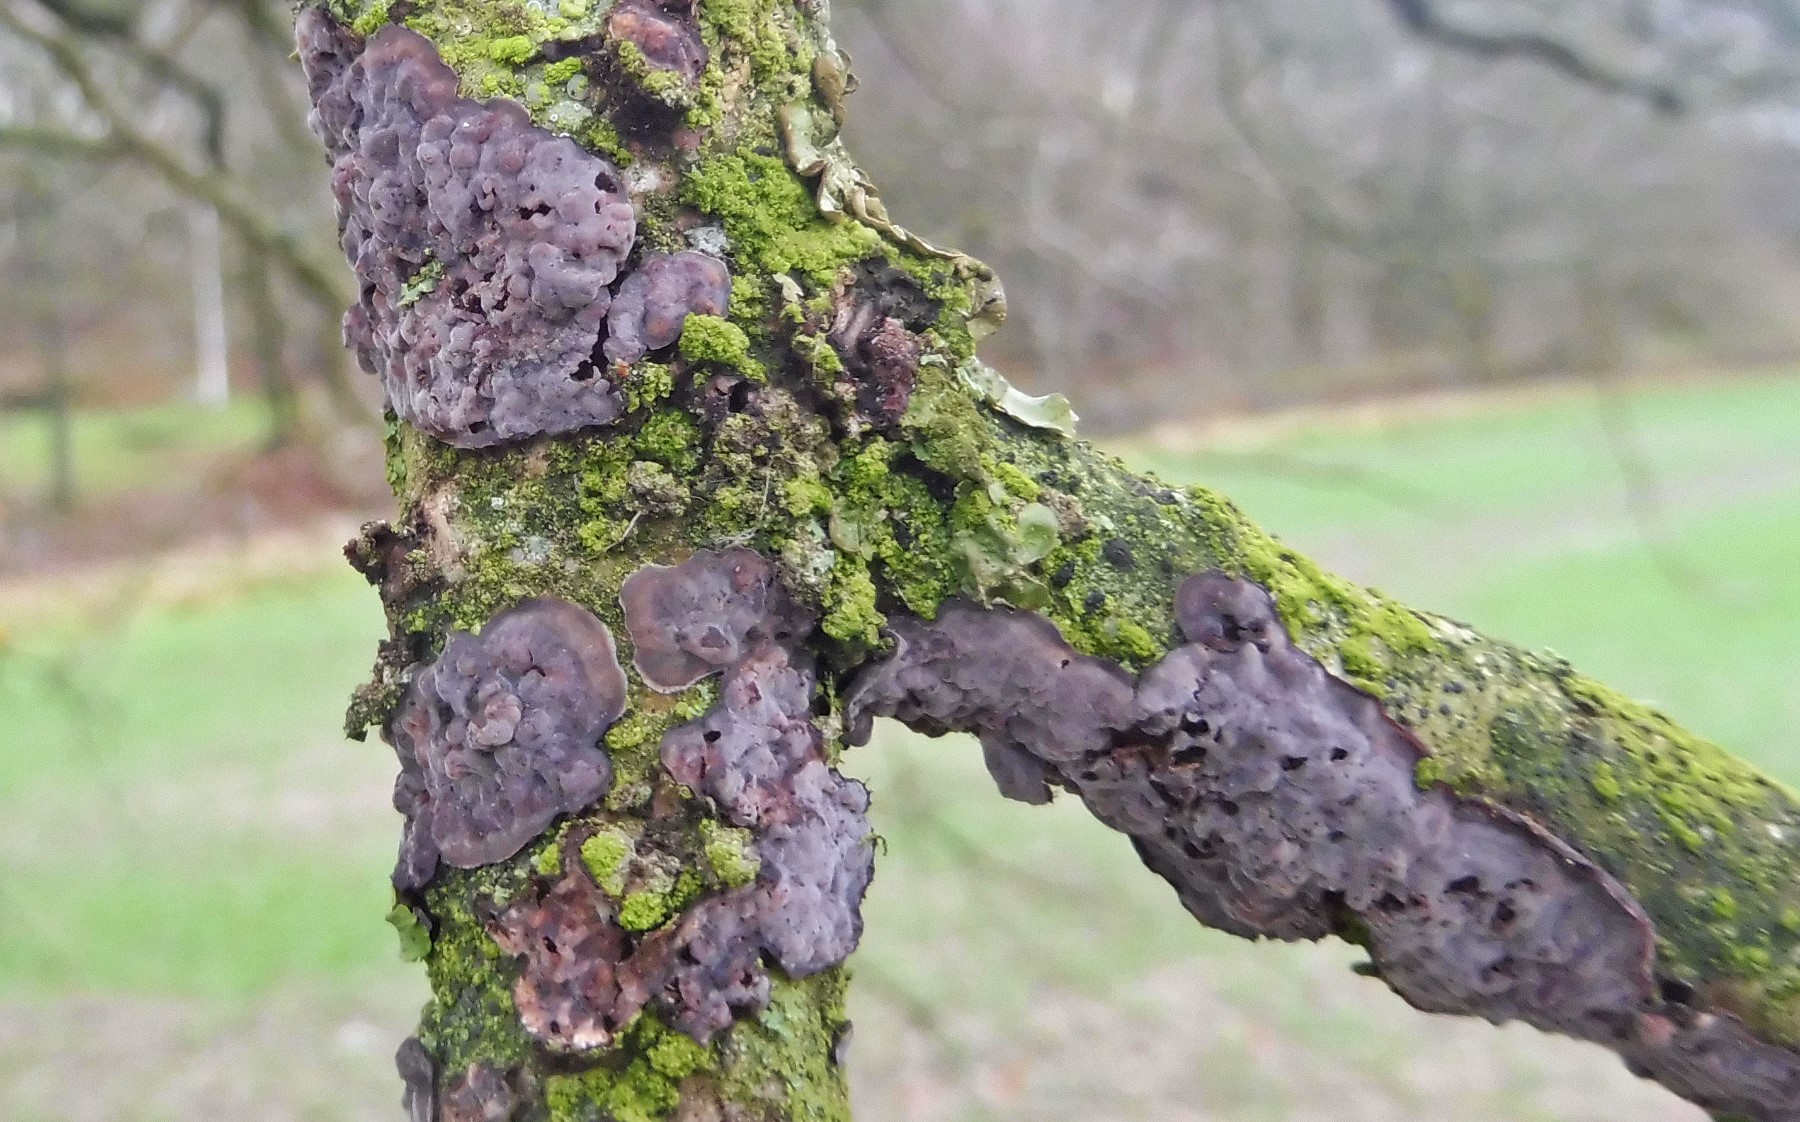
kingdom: Fungi
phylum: Basidiomycota
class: Agaricomycetes
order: Russulales
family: Peniophoraceae
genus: Peniophora
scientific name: Peniophora quercina
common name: ege-voksskind
